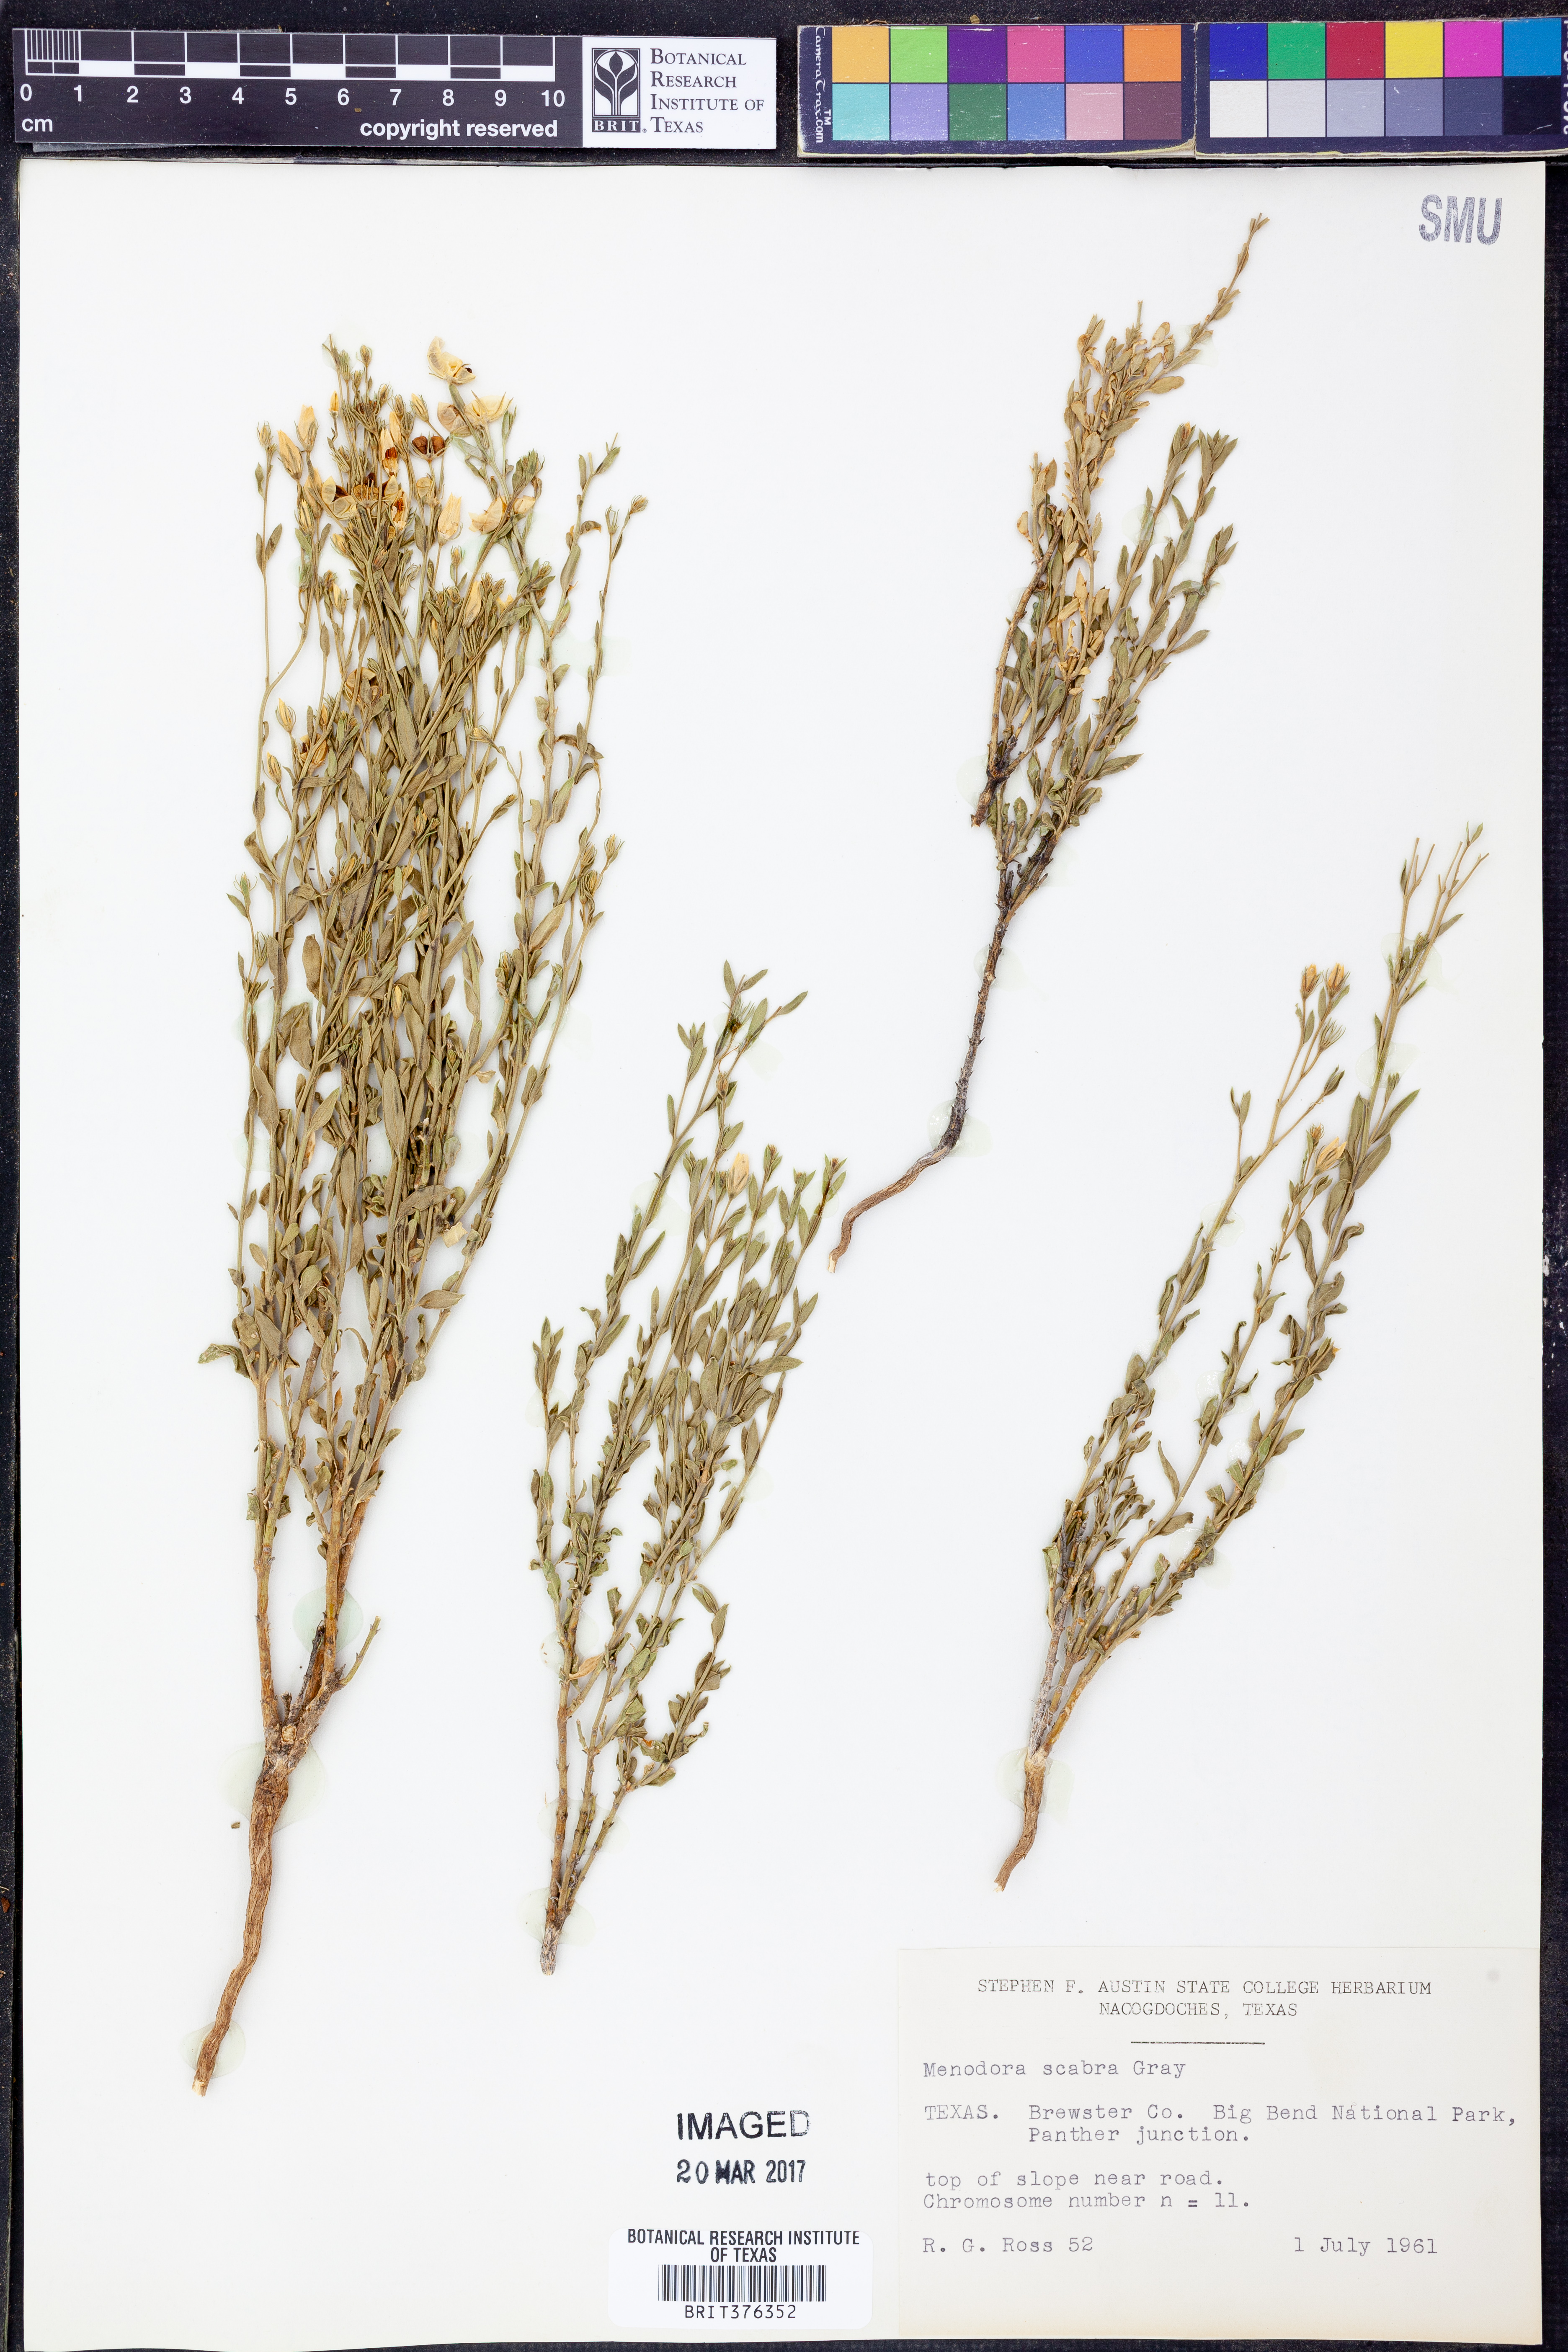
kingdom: Plantae
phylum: Tracheophyta
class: Magnoliopsida
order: Lamiales
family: Oleaceae
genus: Menodora
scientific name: Menodora scabra
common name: Rough menodora
